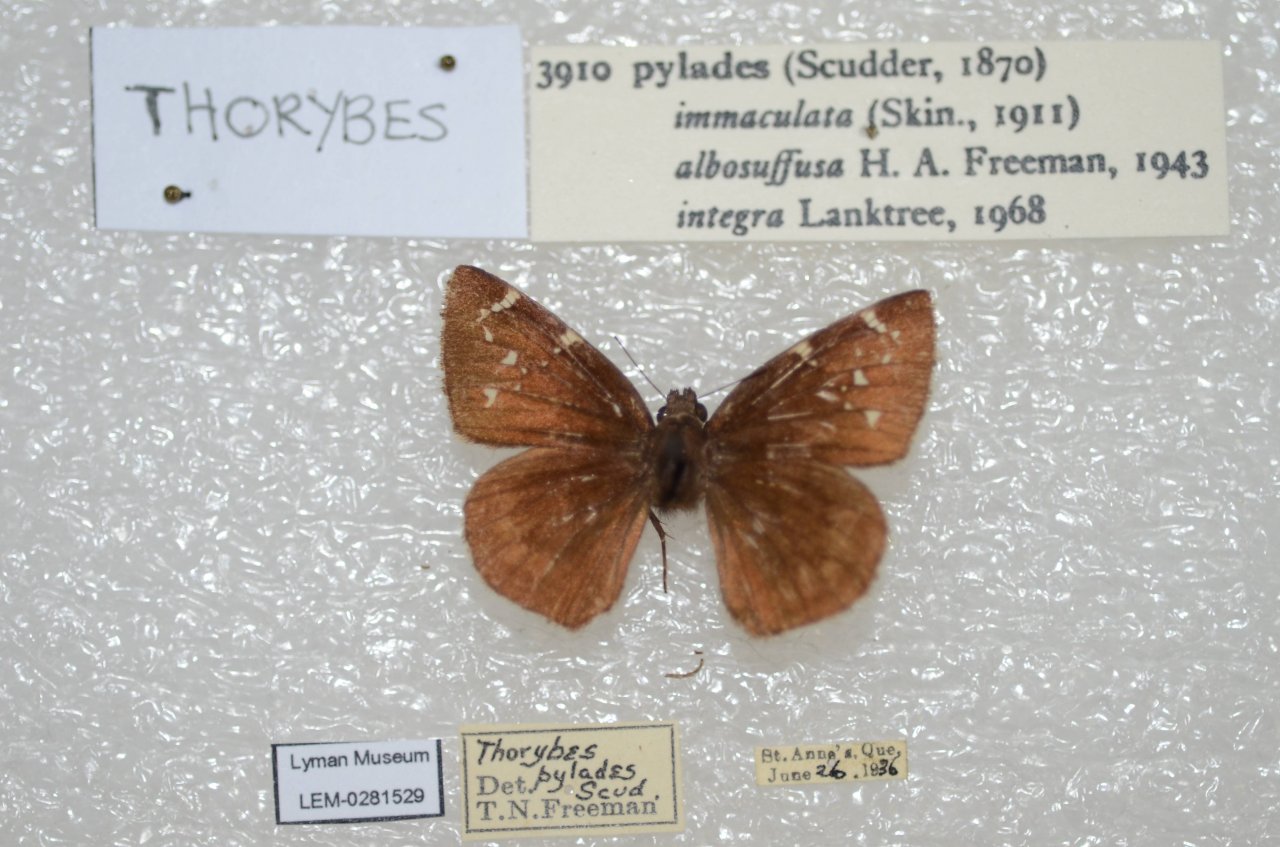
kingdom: Animalia
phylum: Arthropoda
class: Insecta
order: Lepidoptera
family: Hesperiidae
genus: Autochton
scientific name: Autochton
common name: Northern Cloudywing
